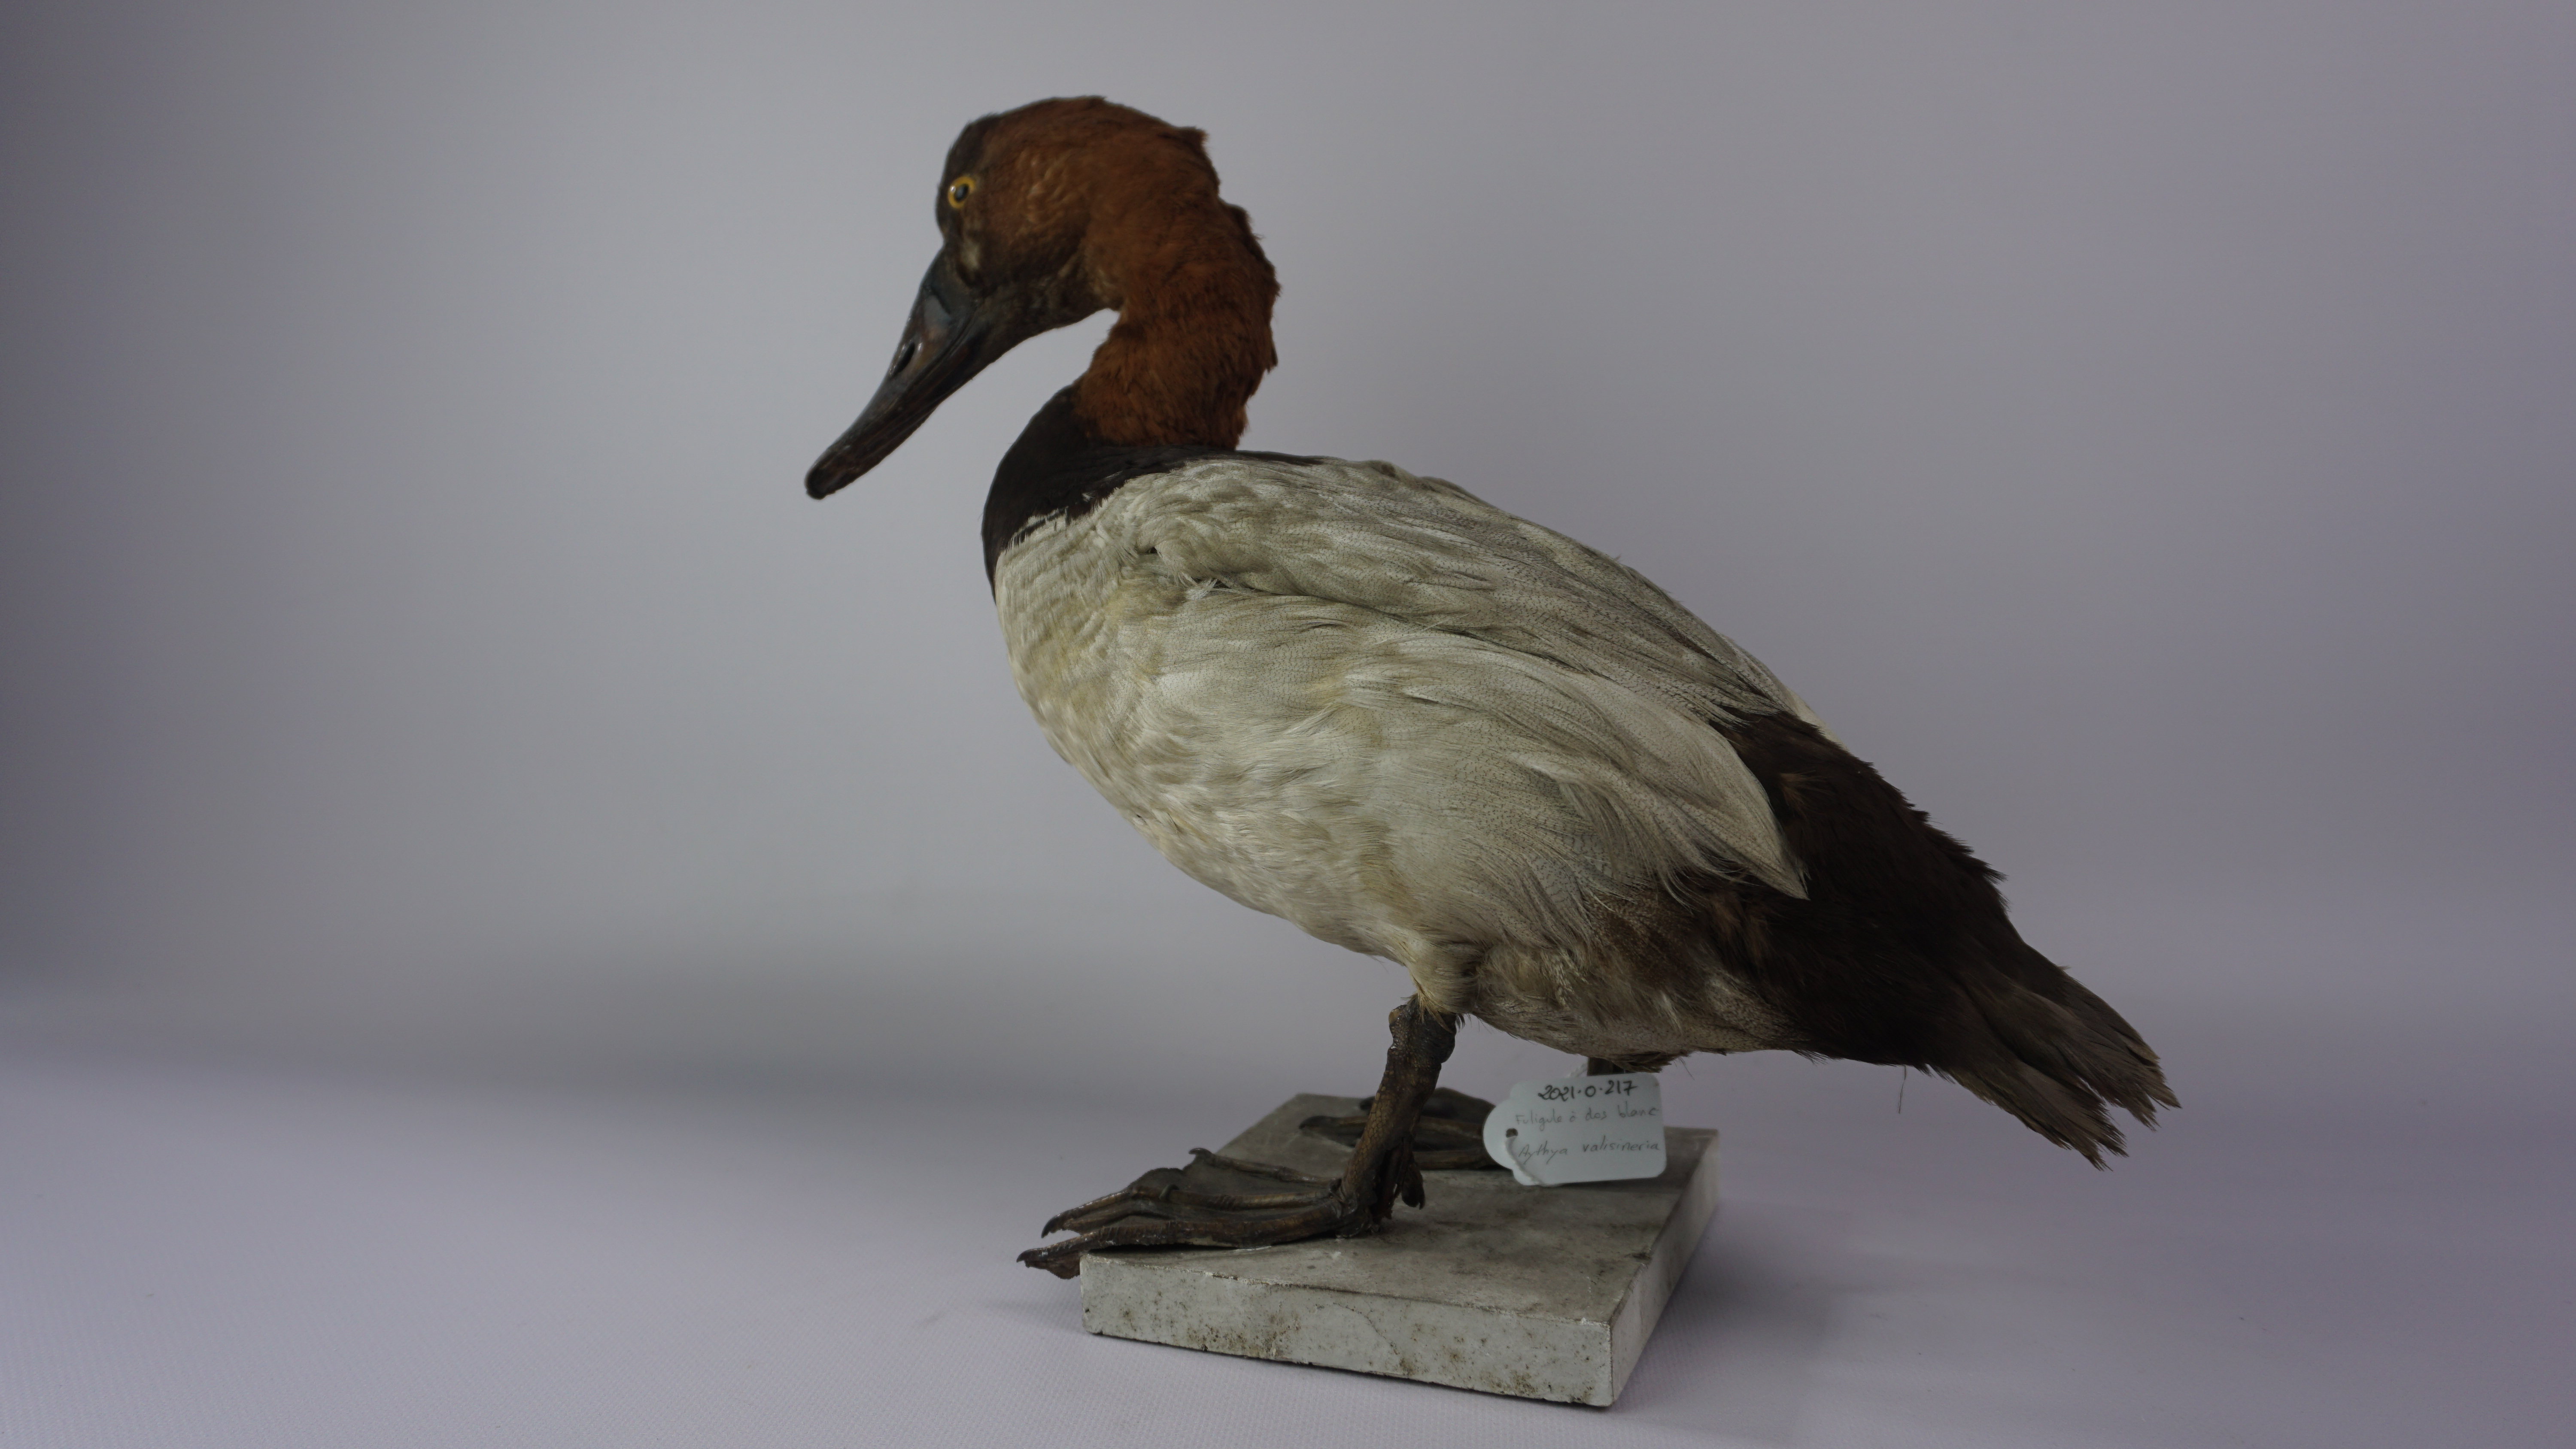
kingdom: Animalia
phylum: Chordata
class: Aves
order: Anseriformes
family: Anatidae
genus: Aythya
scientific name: Aythya valisineria
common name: Canvasback
